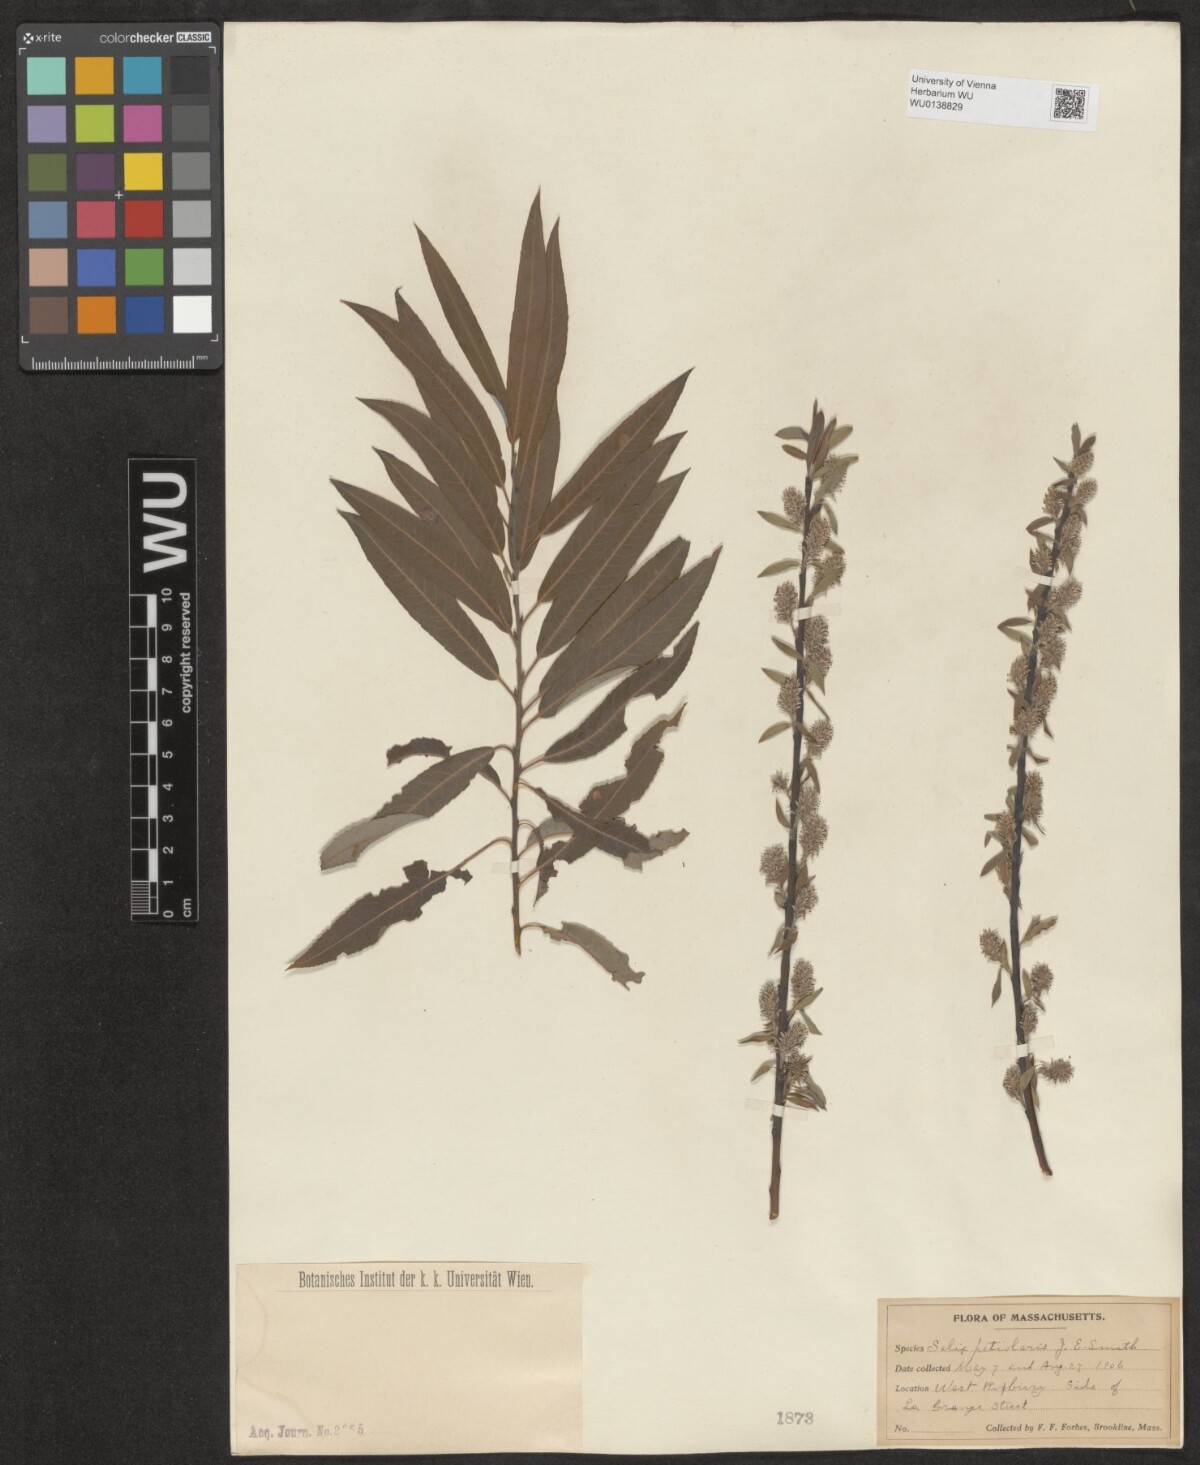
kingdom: Plantae
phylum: Tracheophyta
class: Magnoliopsida
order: Malpighiales
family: Salicaceae
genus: Salix
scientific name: Salix petiolaris
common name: Slender willow
